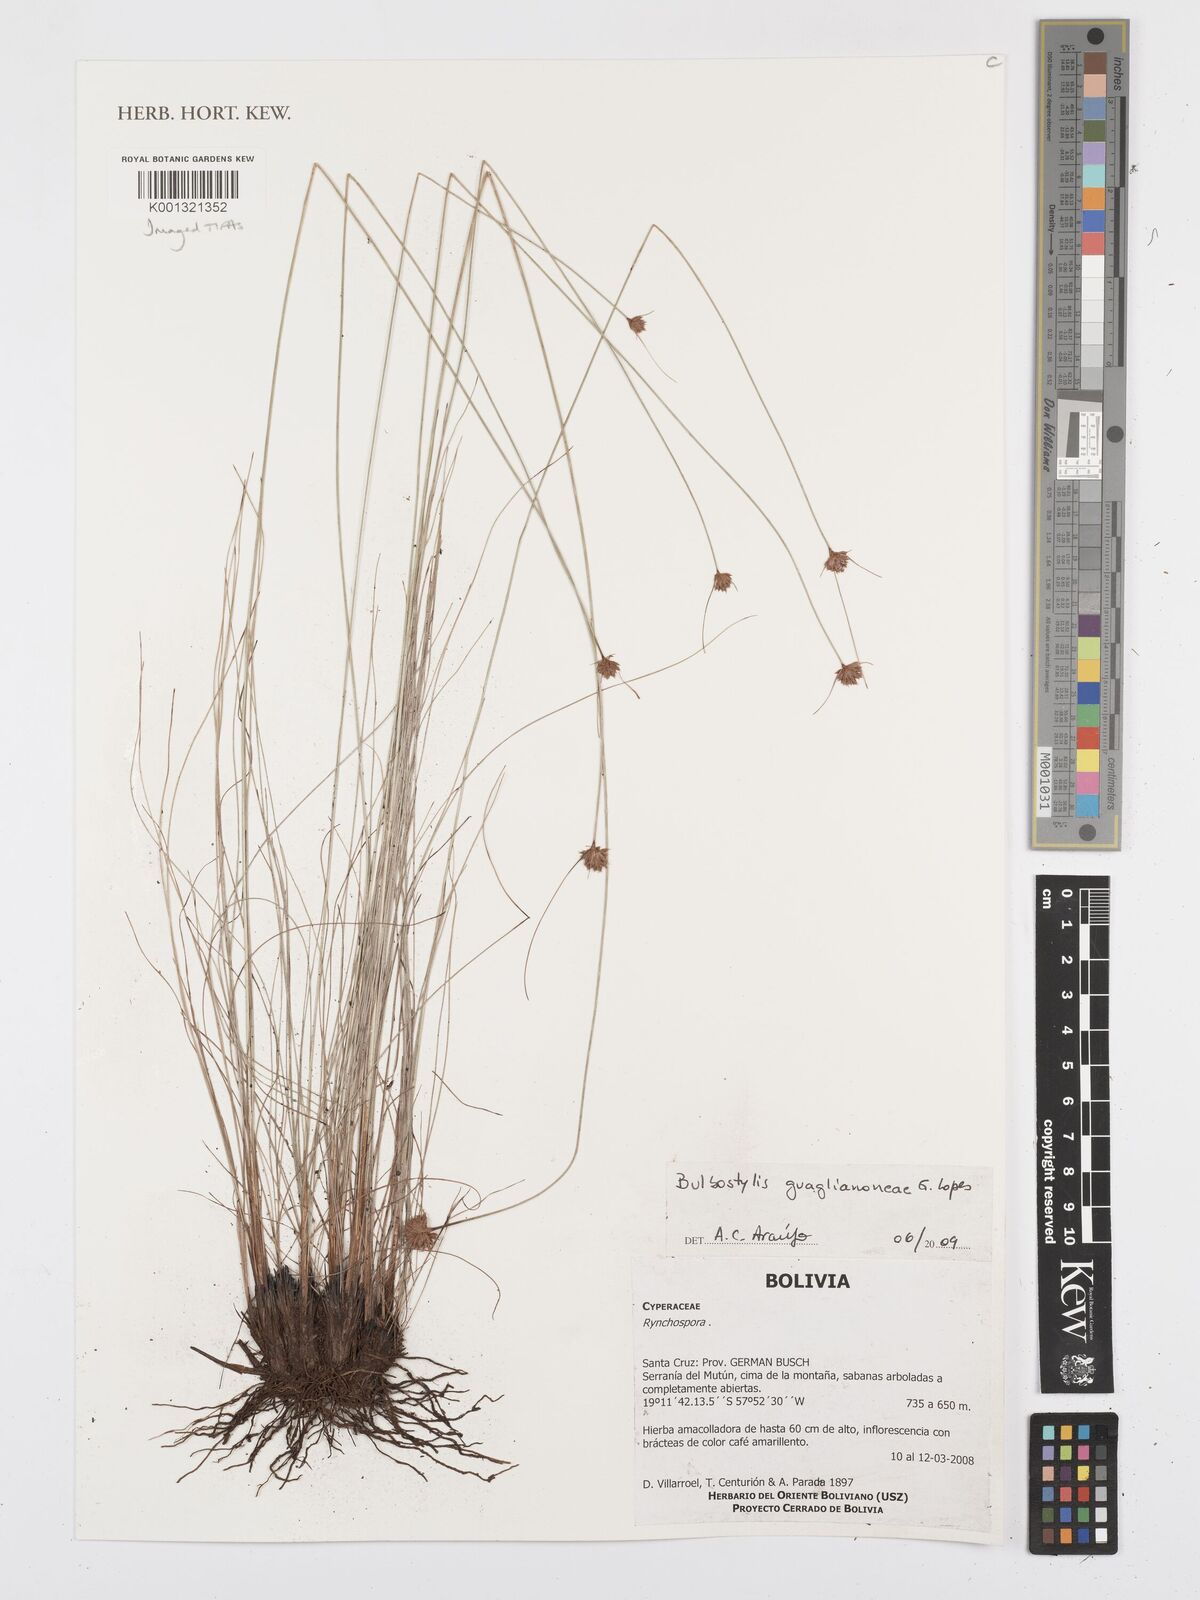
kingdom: Plantae
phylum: Tracheophyta
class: Liliopsida
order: Poales
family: Cyperaceae
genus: Bulbostylis
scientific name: Bulbostylis guaglianoneae
